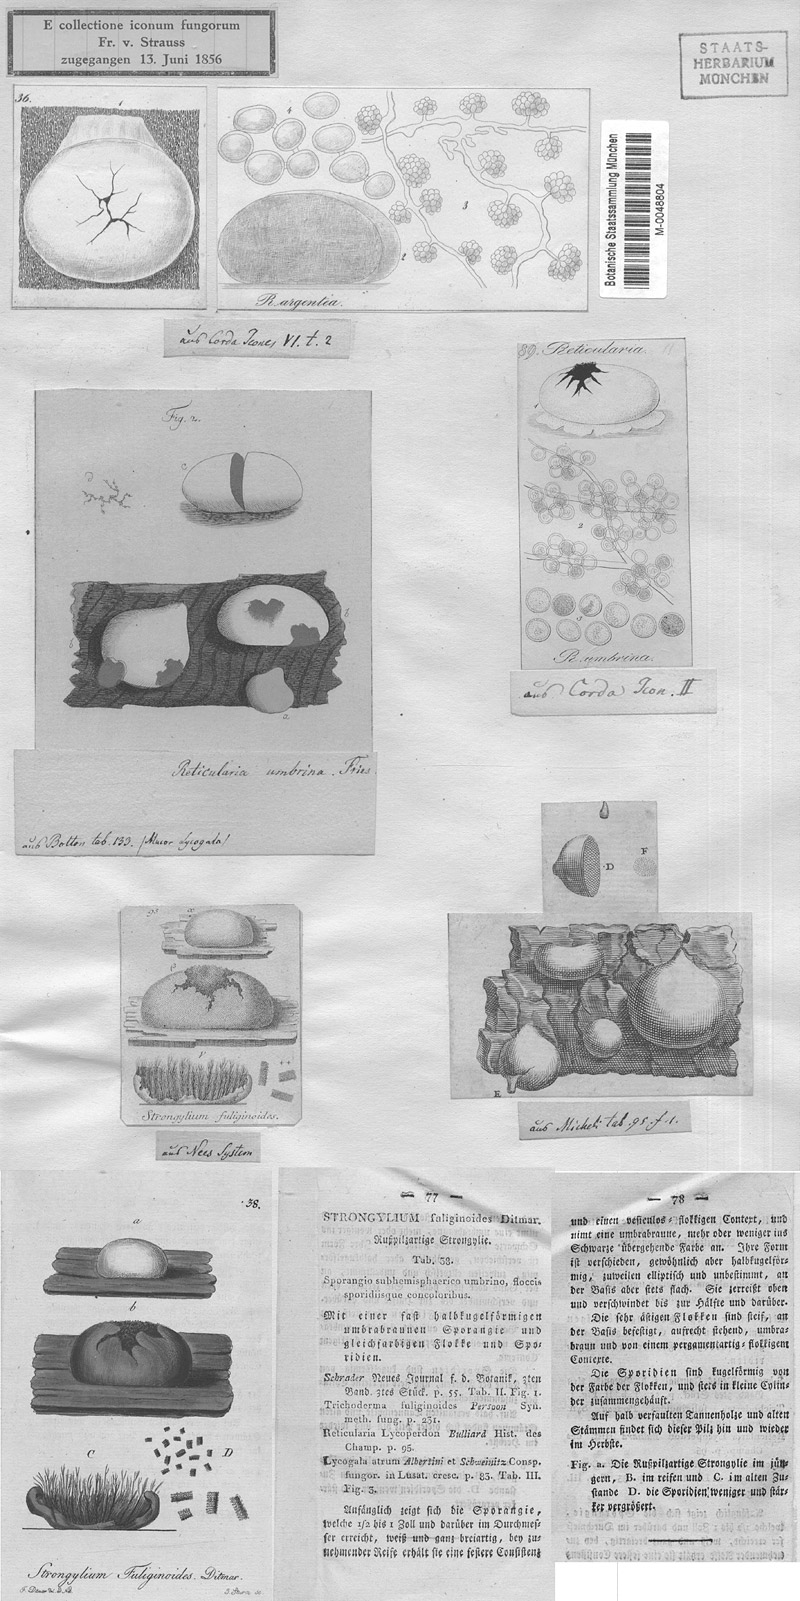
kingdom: Protozoa
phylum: Mycetozoa
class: Myxomycetes
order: Cribrariales
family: Tubiferaceae
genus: Reticularia
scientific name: Reticularia lycoperdon
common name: False puffball
